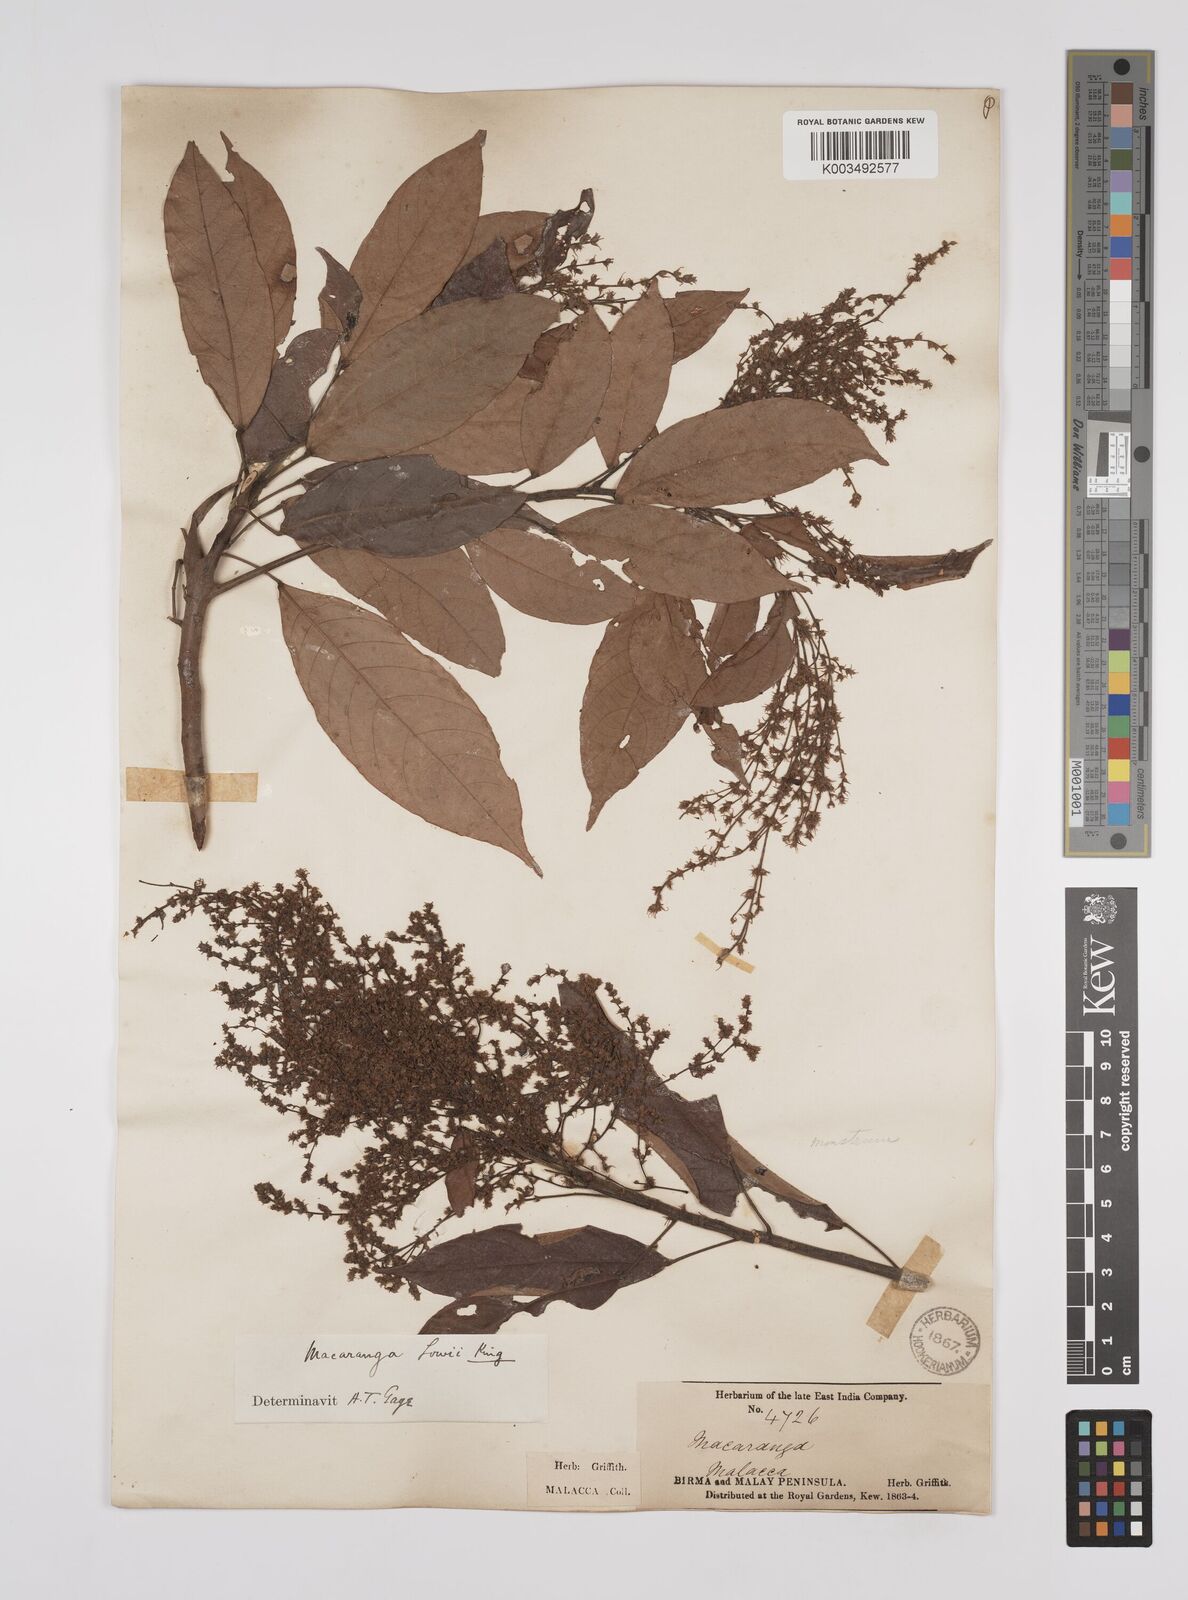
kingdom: Plantae
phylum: Tracheophyta
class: Magnoliopsida
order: Malpighiales
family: Euphorbiaceae
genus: Macaranga
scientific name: Macaranga lowii
